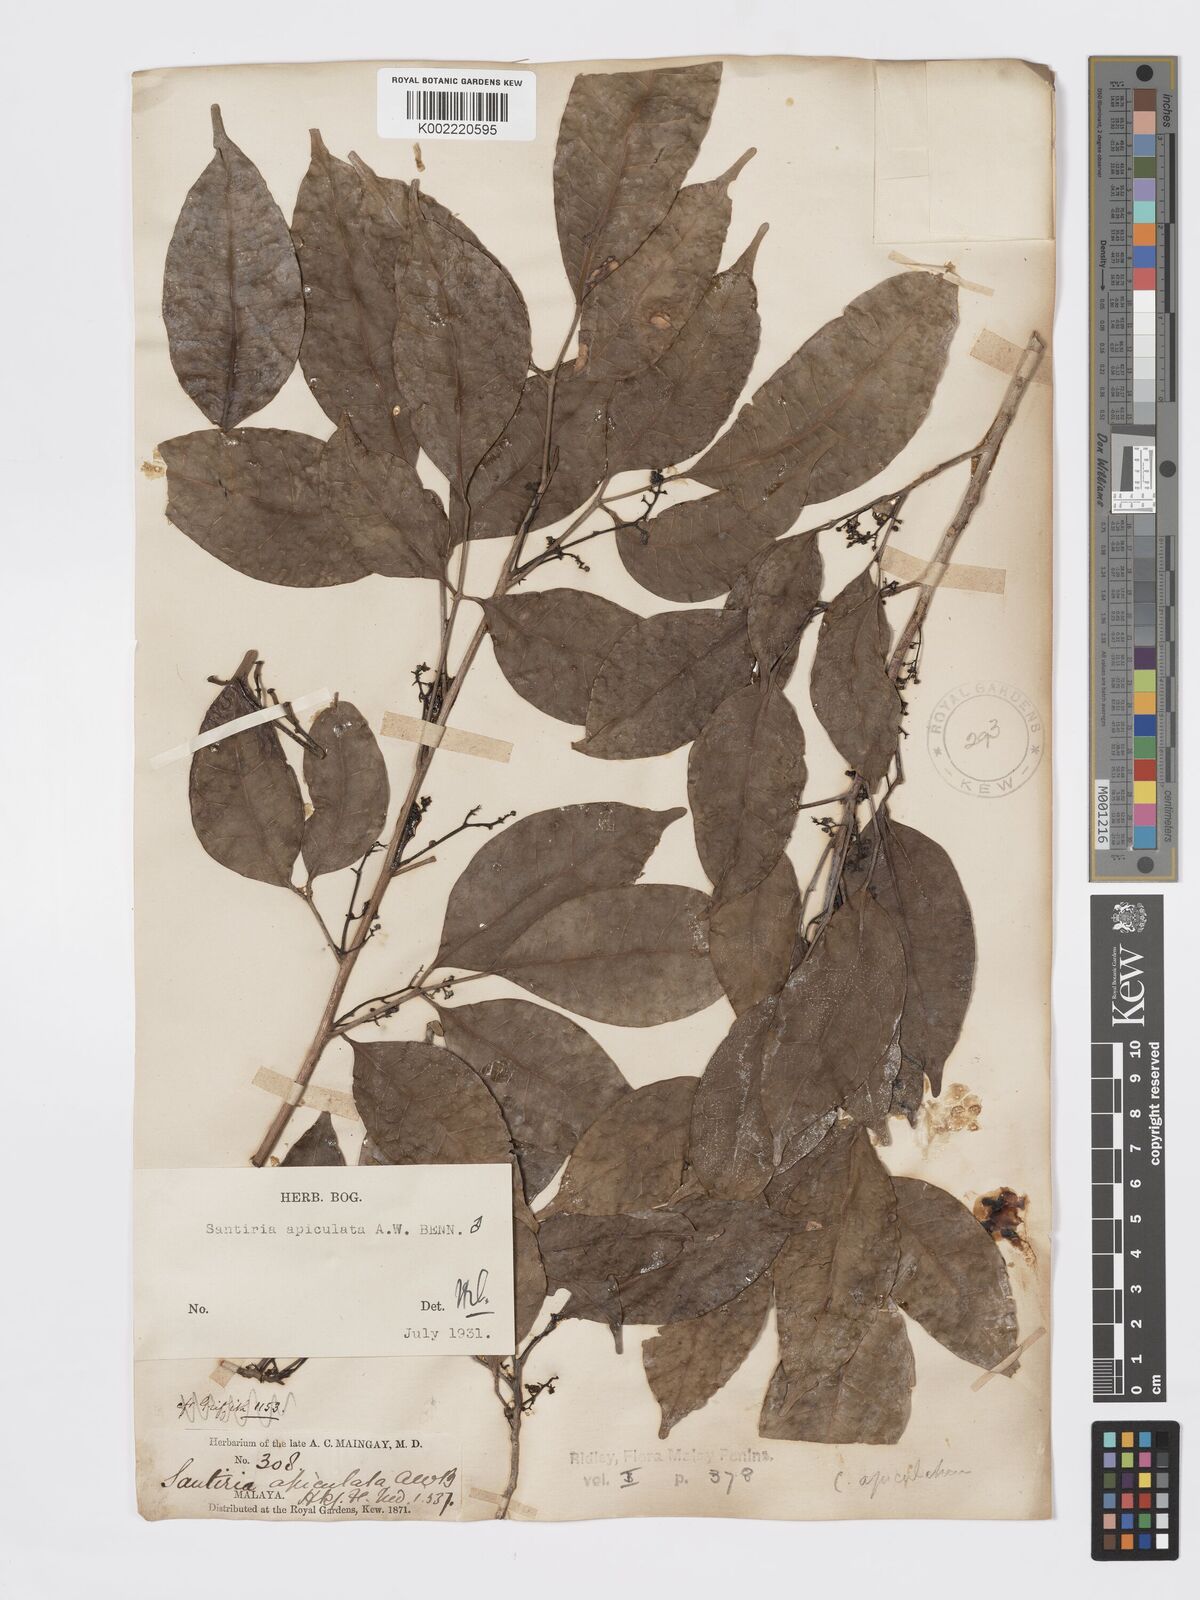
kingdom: Plantae
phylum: Tracheophyta
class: Magnoliopsida
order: Sapindales
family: Burseraceae
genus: Santiria
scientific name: Santiria apiculata
